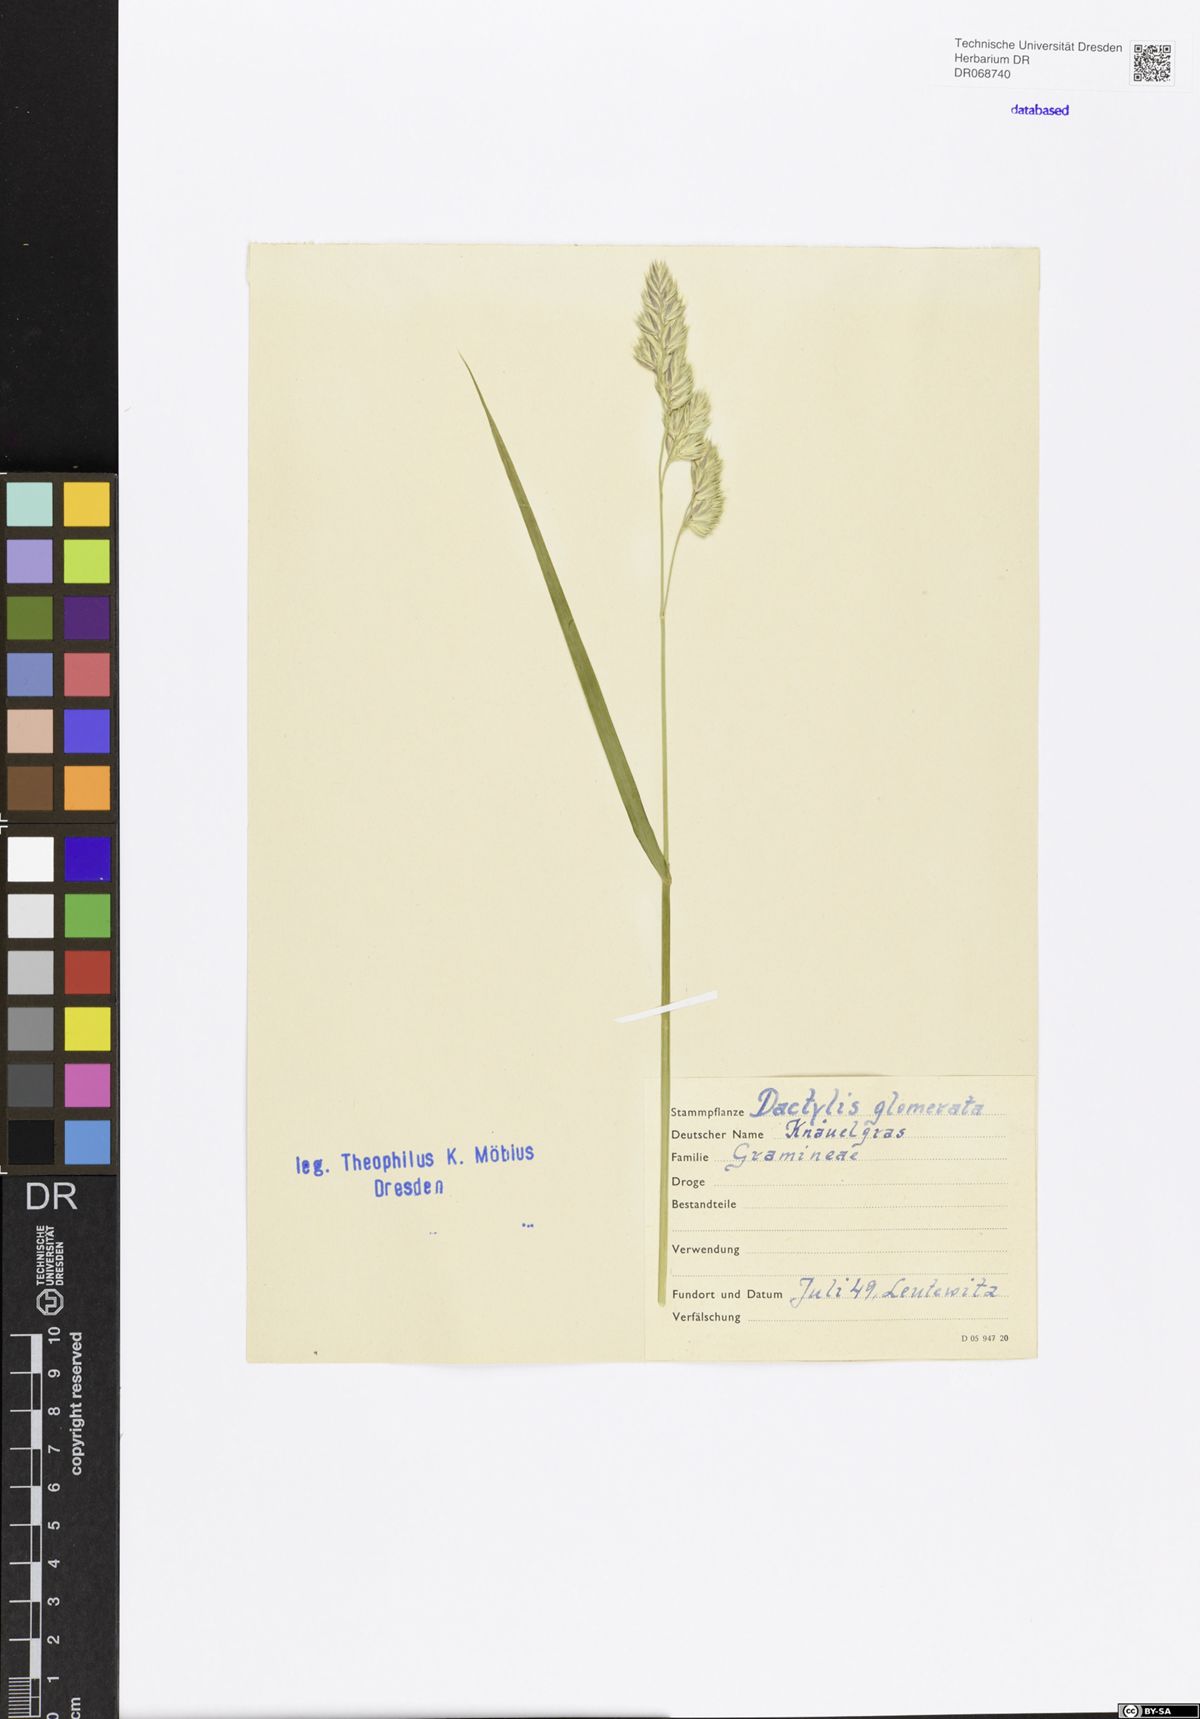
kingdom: Plantae
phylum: Tracheophyta
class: Liliopsida
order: Poales
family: Poaceae
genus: Dactylis
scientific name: Dactylis glomerata
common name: Orchardgrass
